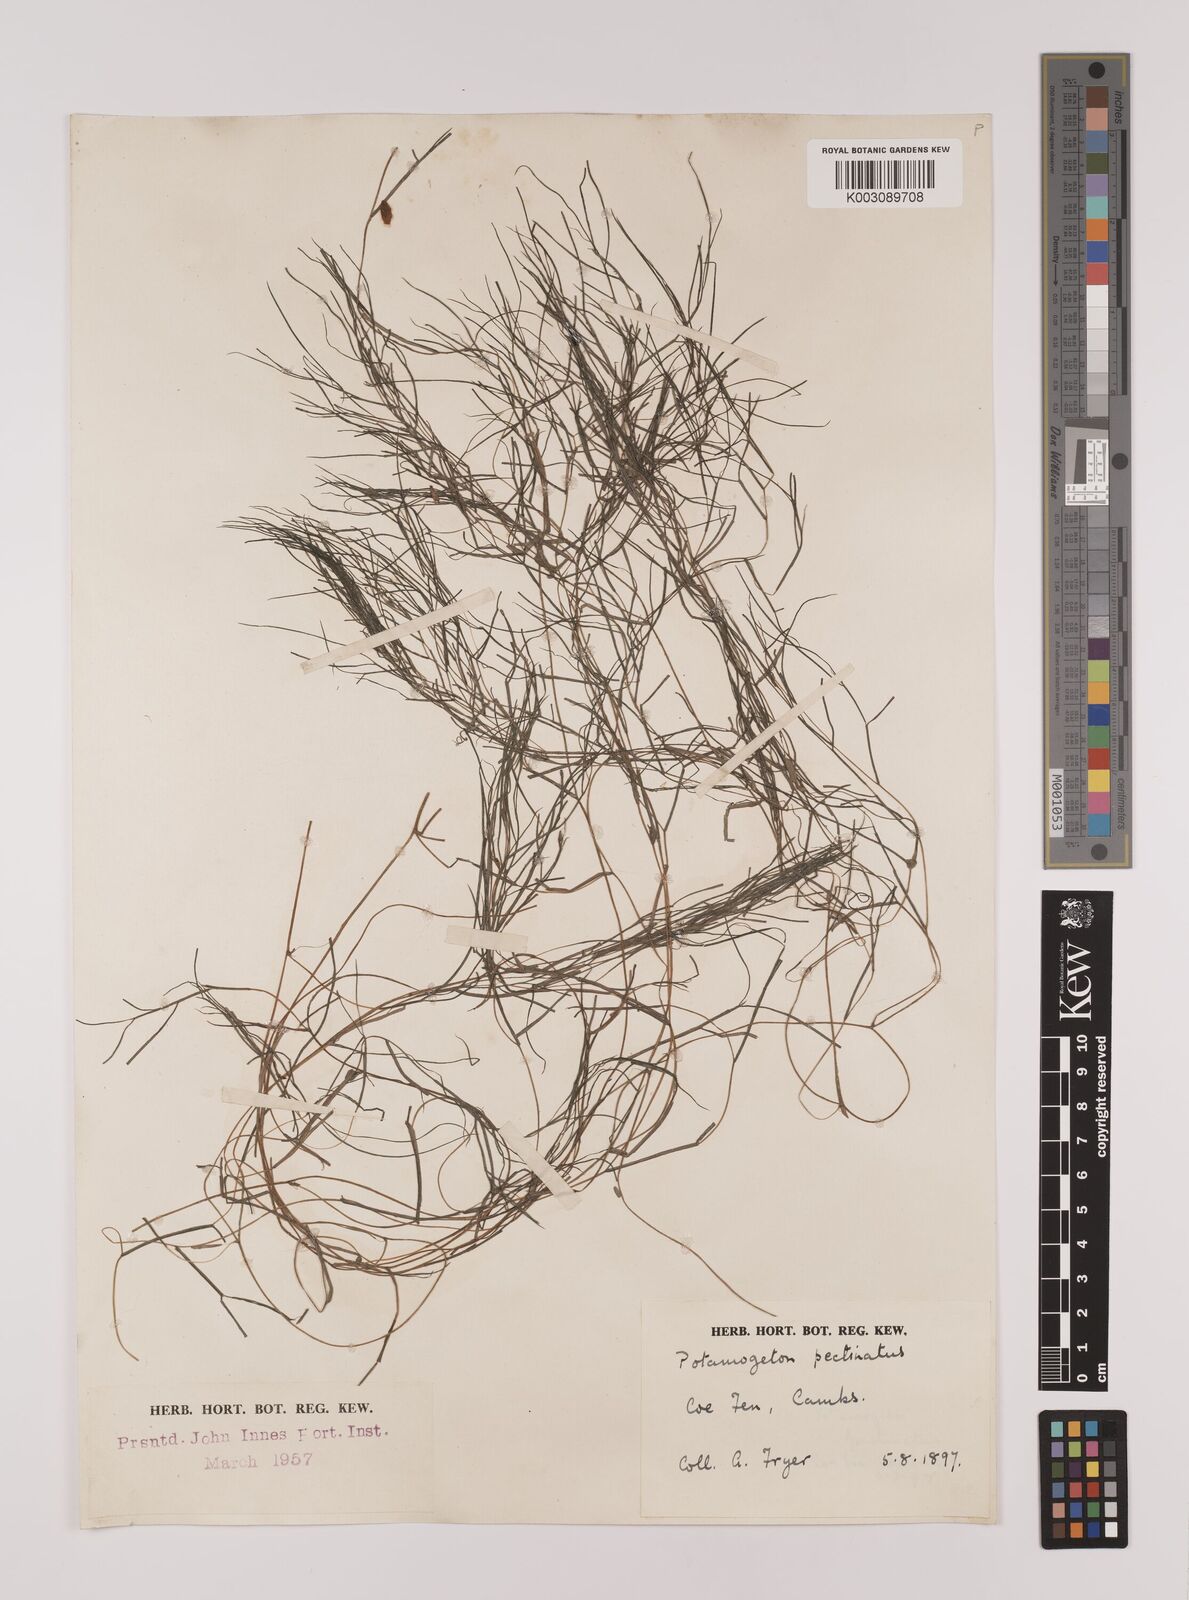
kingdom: Plantae
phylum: Tracheophyta
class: Liliopsida
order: Alismatales
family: Potamogetonaceae
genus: Stuckenia
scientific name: Stuckenia pectinata
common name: Sago pondweed
